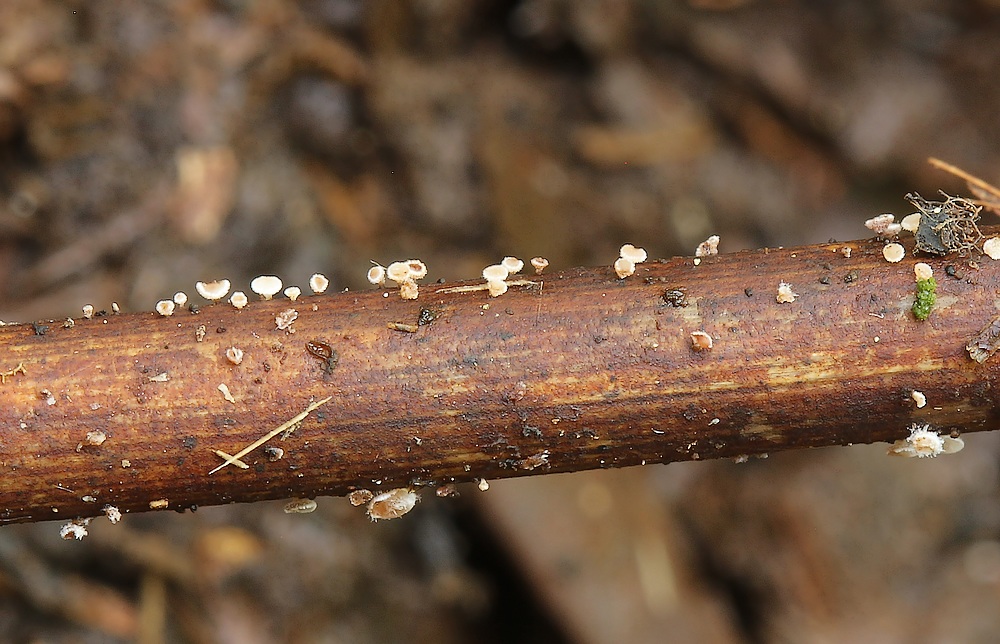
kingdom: Fungi
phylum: Ascomycota
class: Leotiomycetes
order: Helotiales
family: Lachnaceae
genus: Lachnum
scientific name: Lachnum
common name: frynseskive
